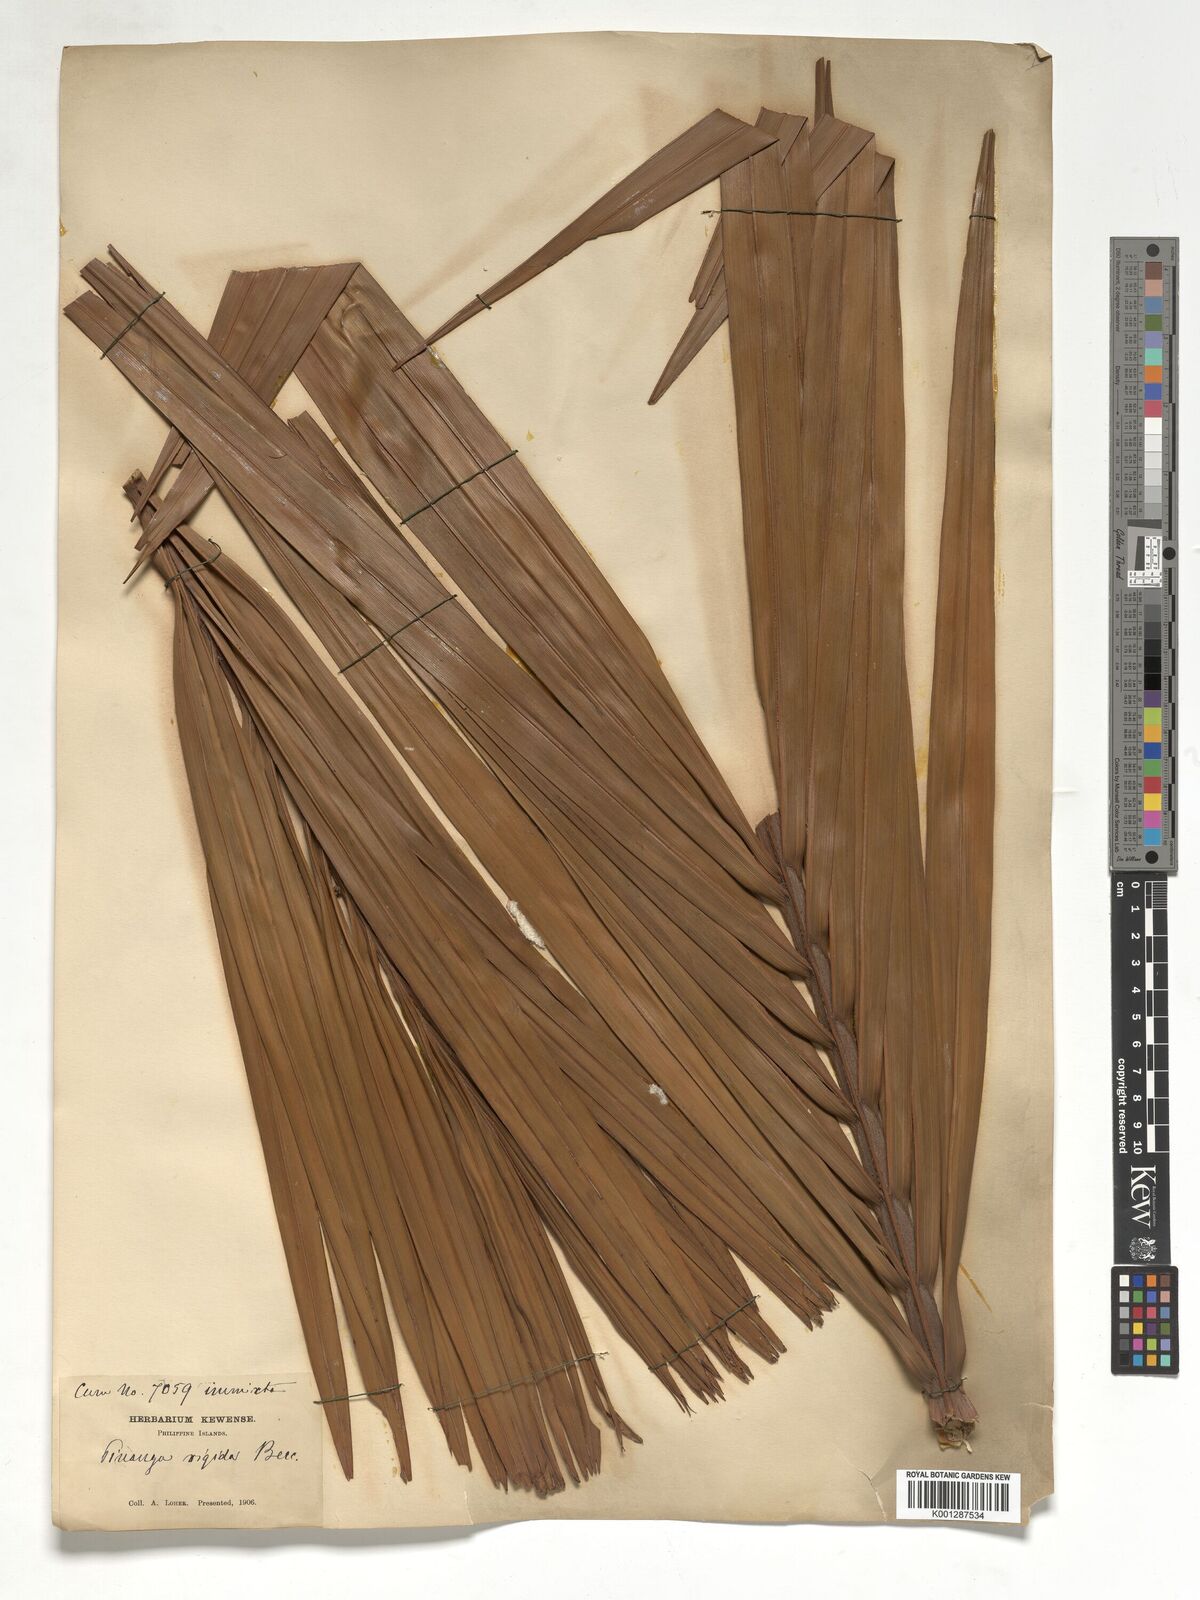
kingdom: Plantae
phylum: Tracheophyta
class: Liliopsida
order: Arecales
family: Arecaceae
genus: Pinanga
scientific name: Pinanga rigida
